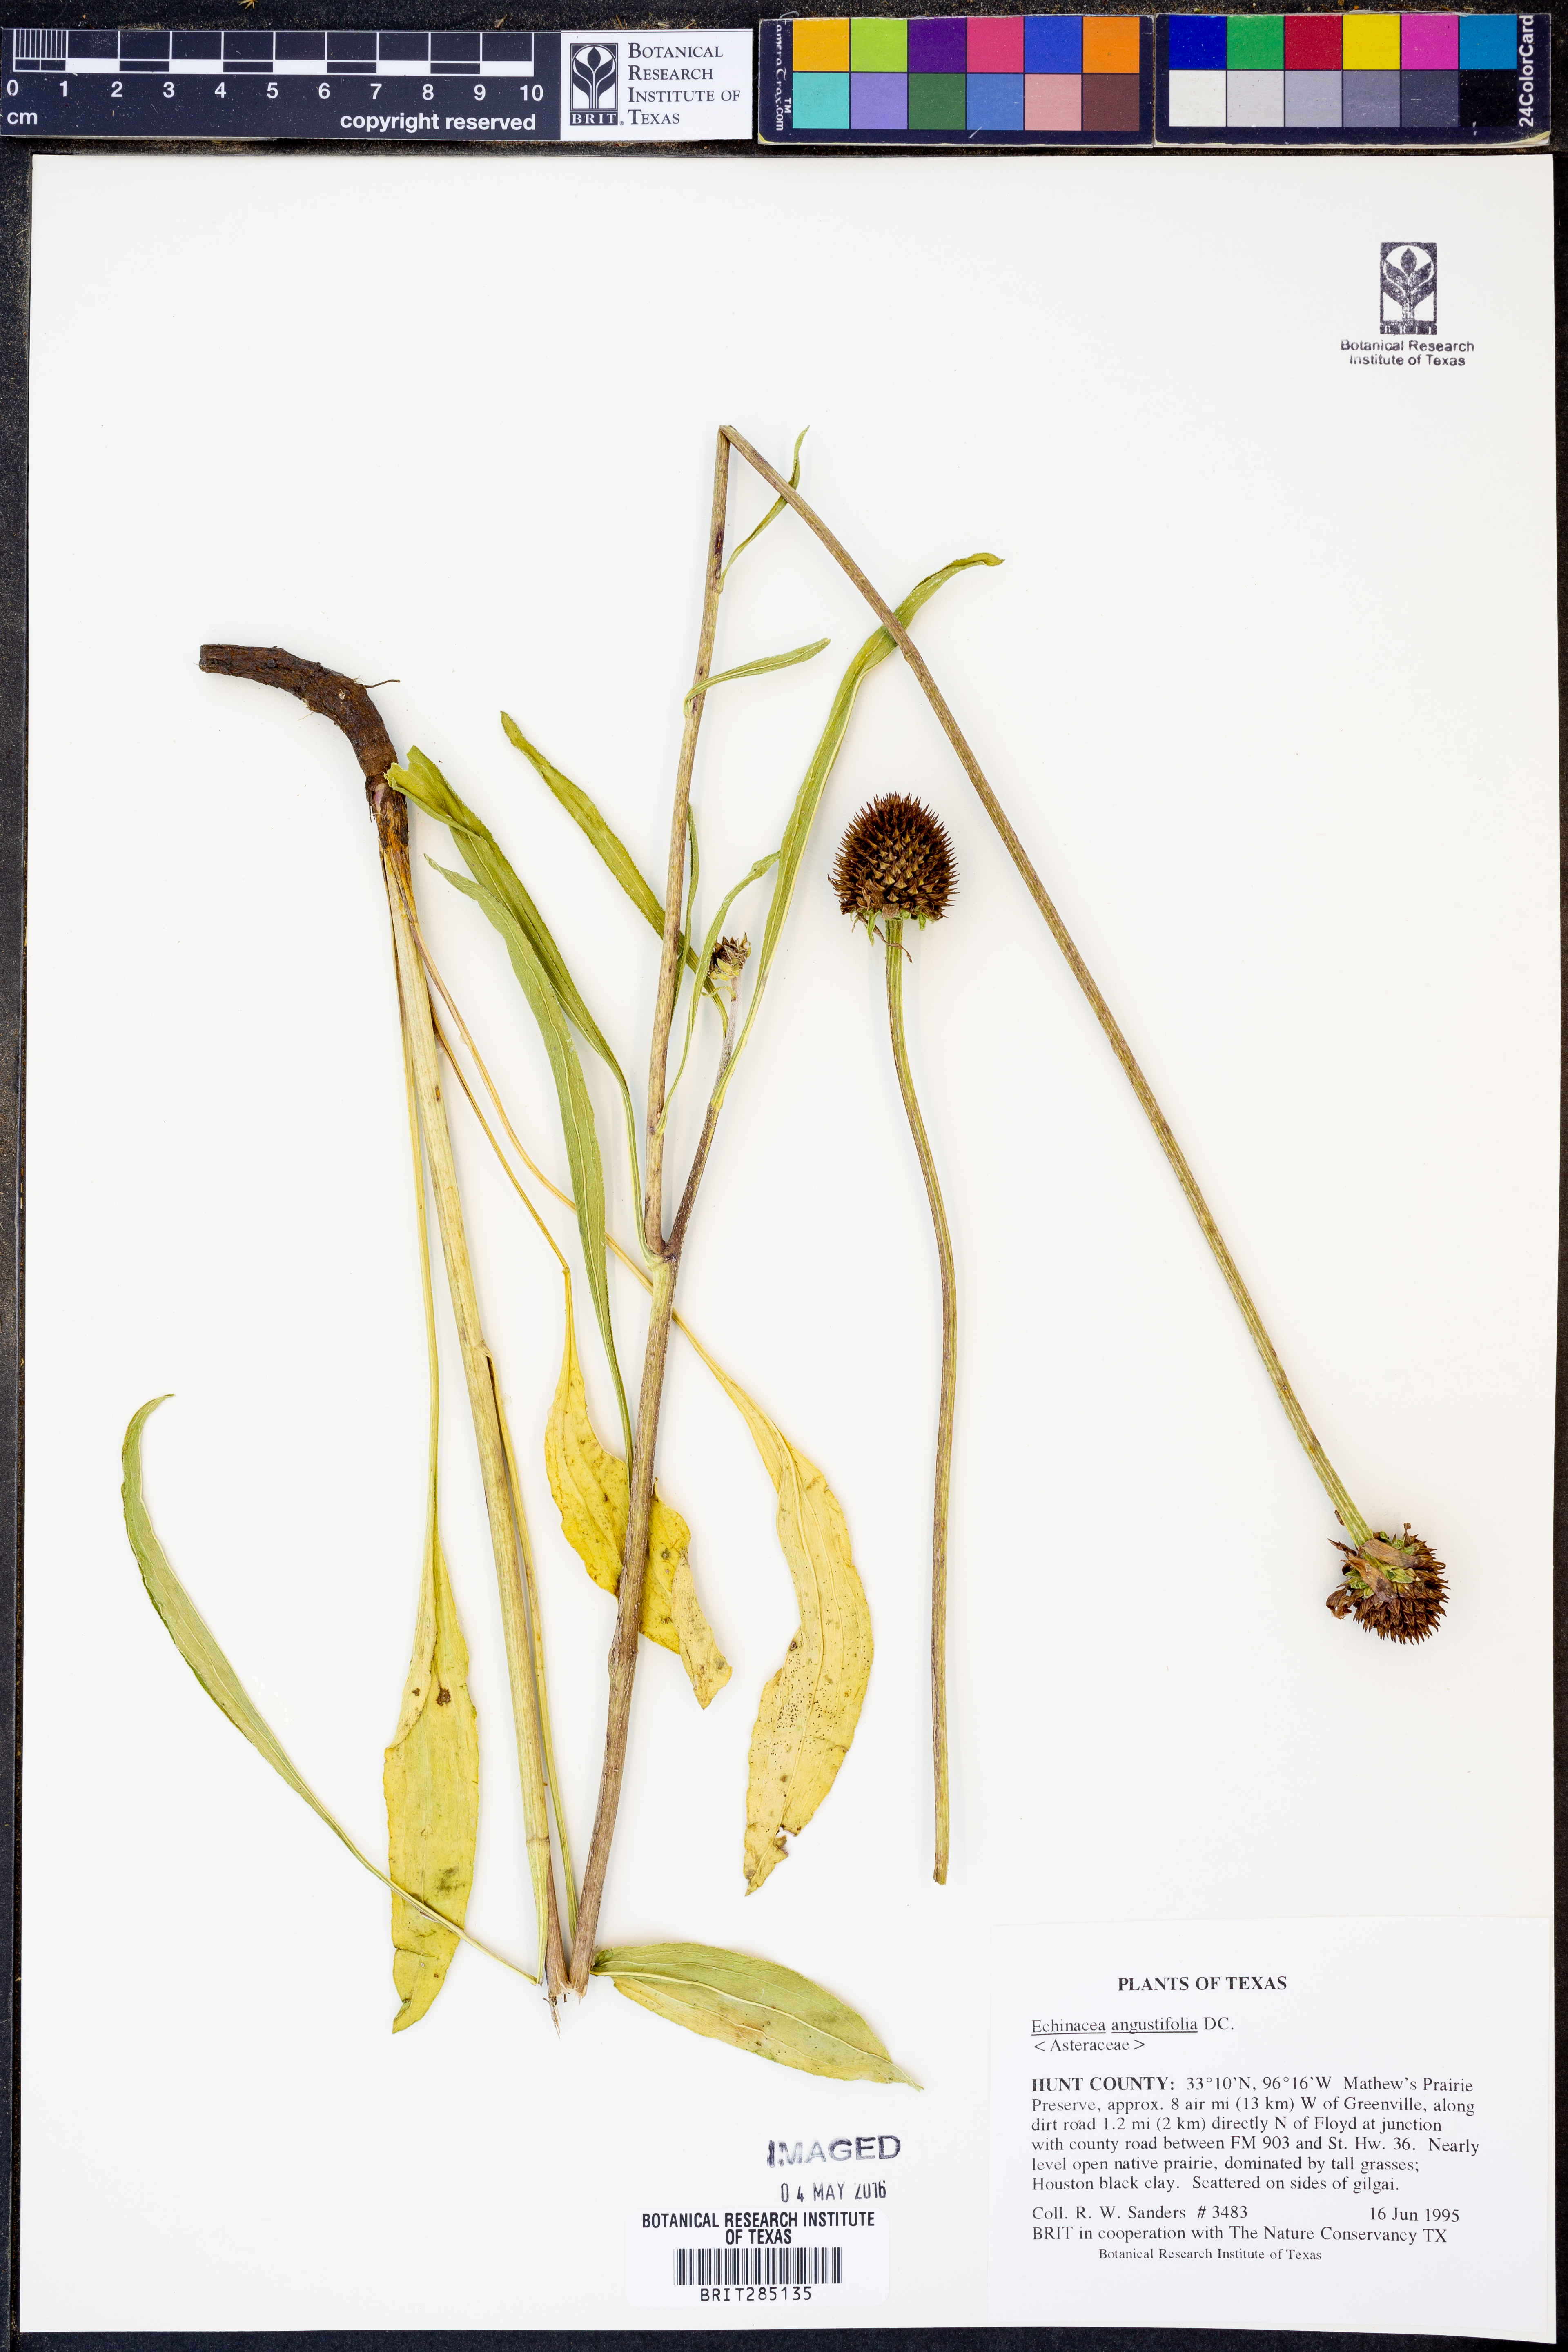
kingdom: Plantae
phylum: Tracheophyta
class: Magnoliopsida
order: Asterales
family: Asteraceae
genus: Echinacea
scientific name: Echinacea angustifolia
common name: Black-sampson echinacea
